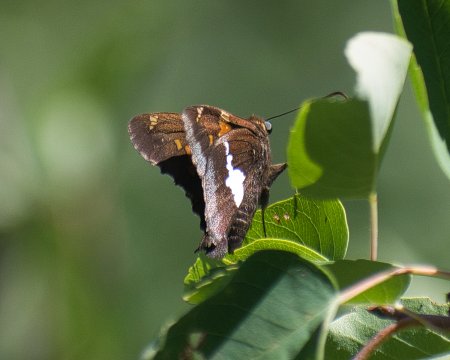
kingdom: Animalia
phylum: Arthropoda
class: Insecta
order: Lepidoptera
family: Hesperiidae
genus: Epargyreus
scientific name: Epargyreus clarus
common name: Silver-spotted Skipper
